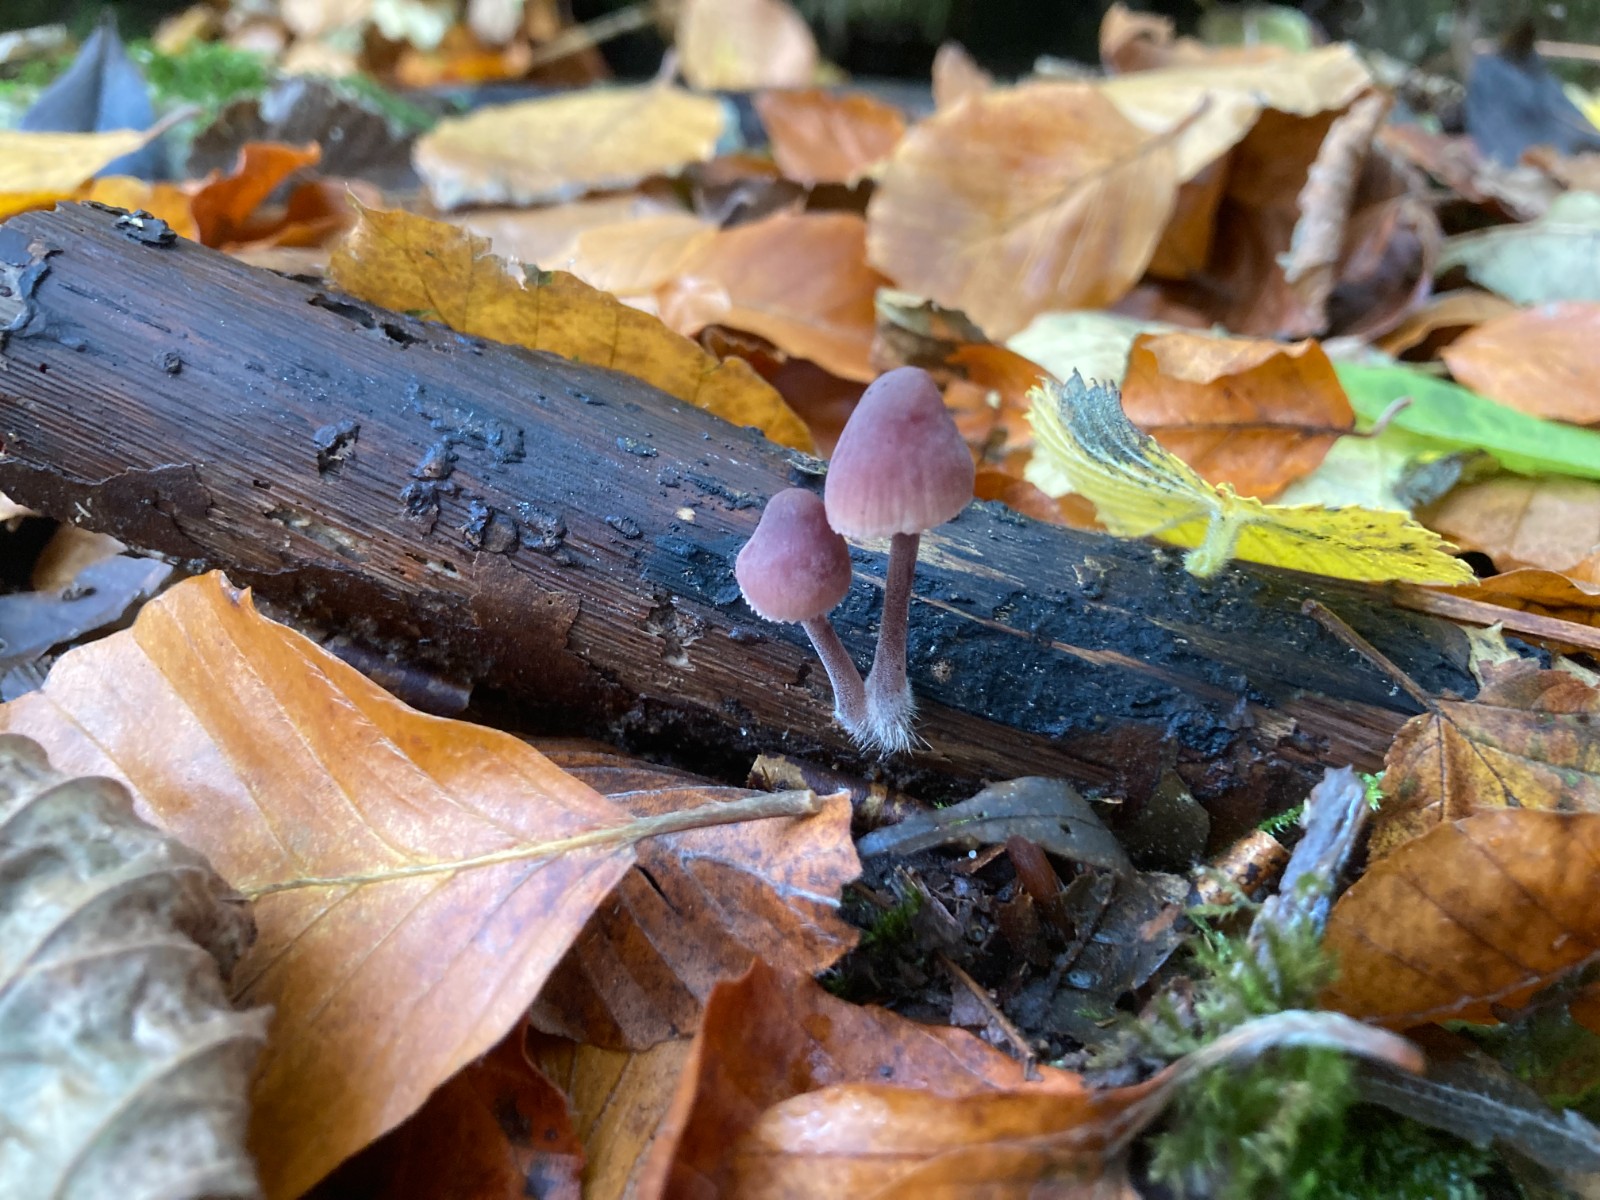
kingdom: Fungi
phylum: Basidiomycota
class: Agaricomycetes
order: Agaricales
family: Mycenaceae
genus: Mycena
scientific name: Mycena haematopus
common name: blødende huesvamp
